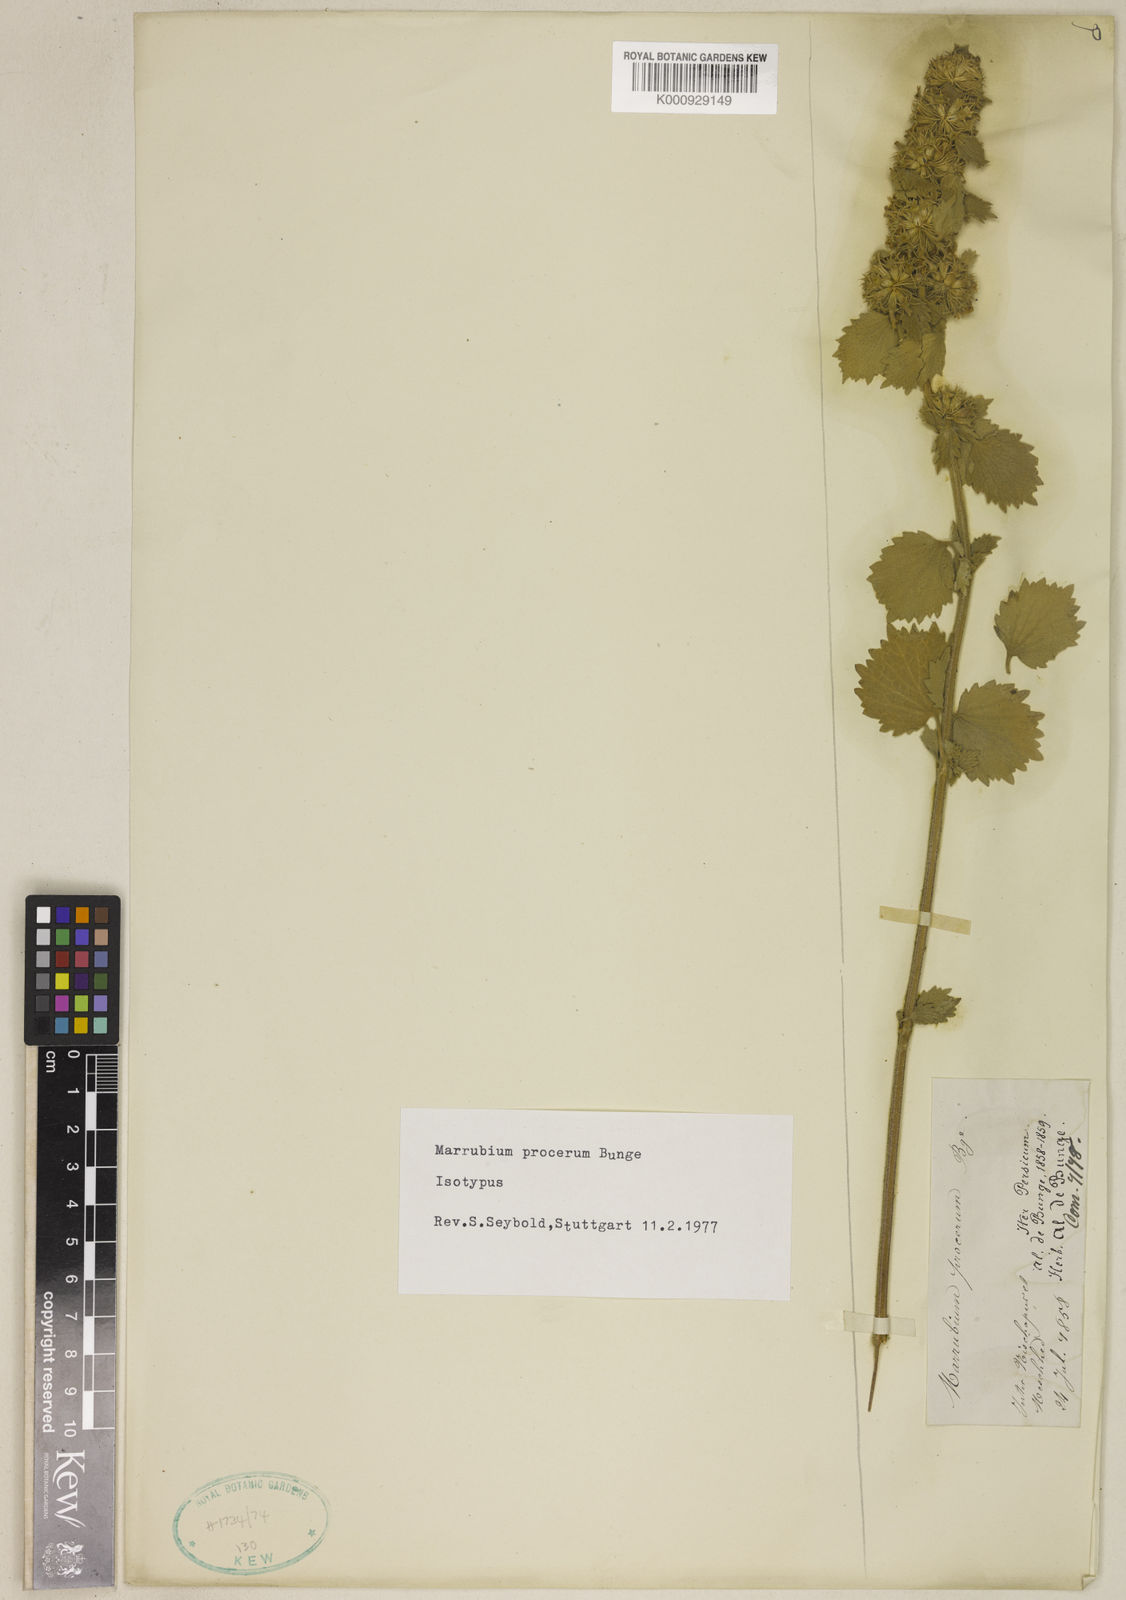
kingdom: Plantae
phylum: Tracheophyta
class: Magnoliopsida
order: Lamiales
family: Lamiaceae
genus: Marrubium
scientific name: Marrubium procerum
